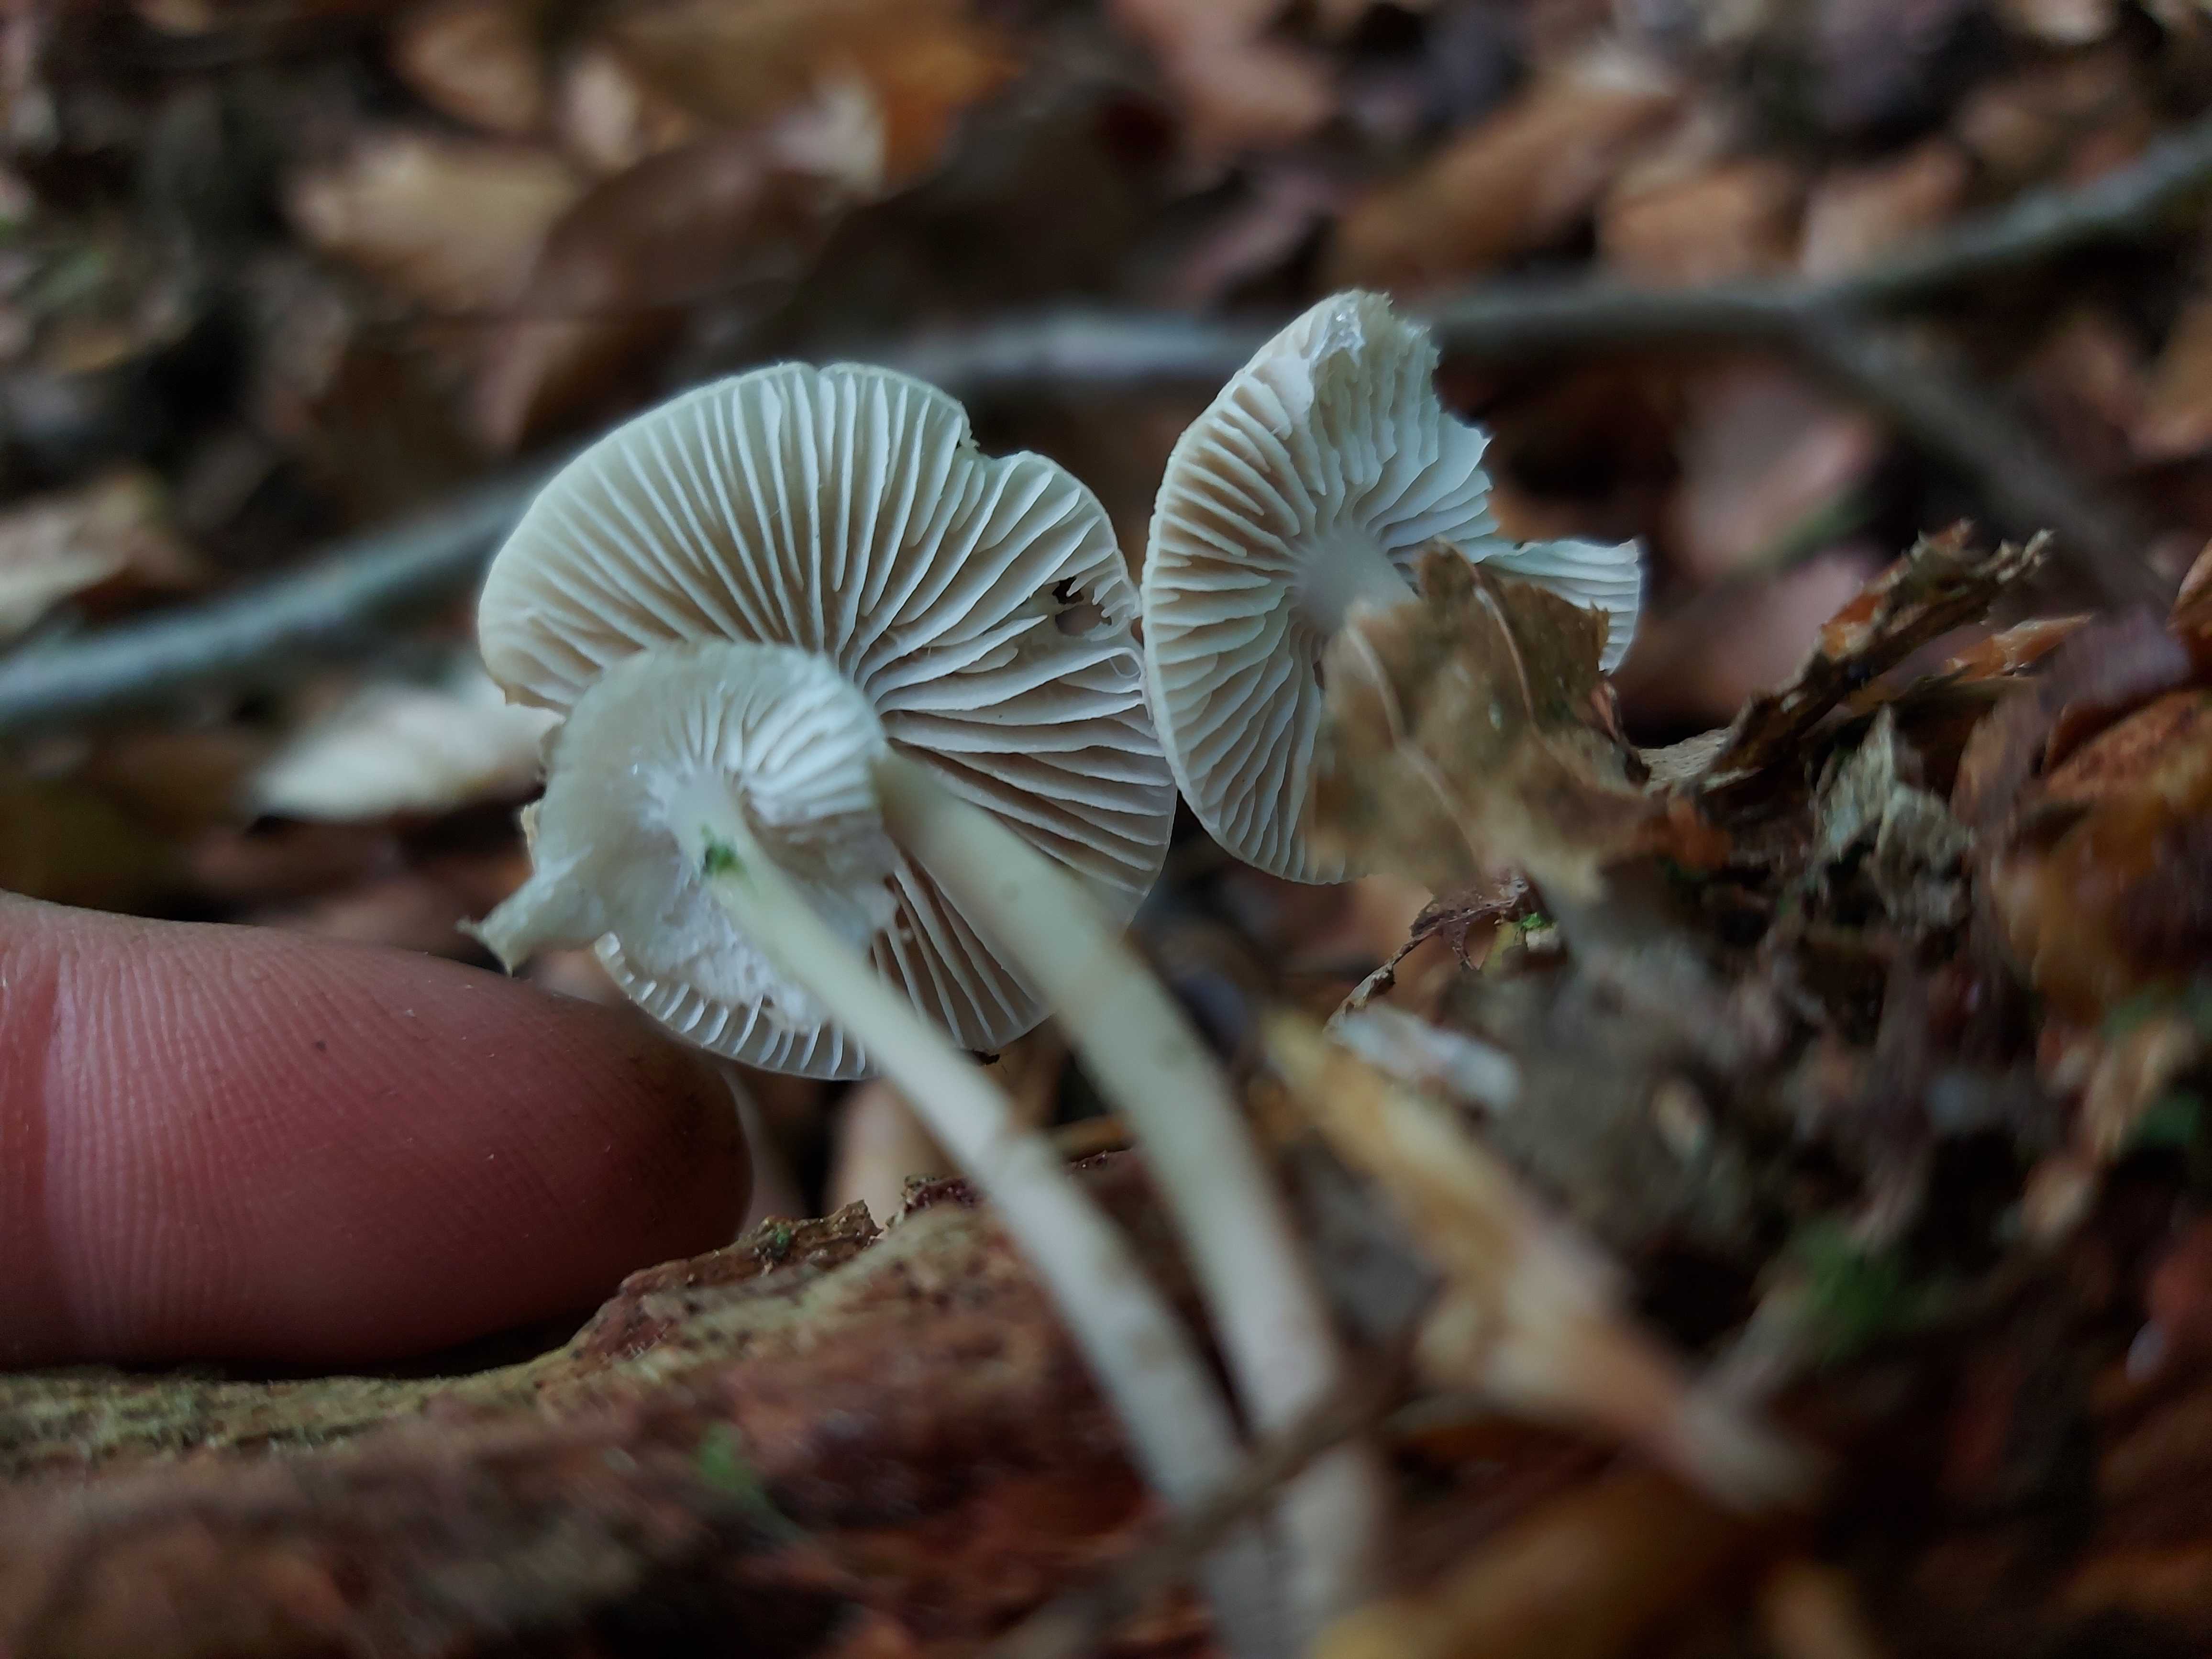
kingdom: Fungi
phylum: Basidiomycota
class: Agaricomycetes
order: Agaricales
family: Mycenaceae
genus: Mycena
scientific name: Mycena galericulata
